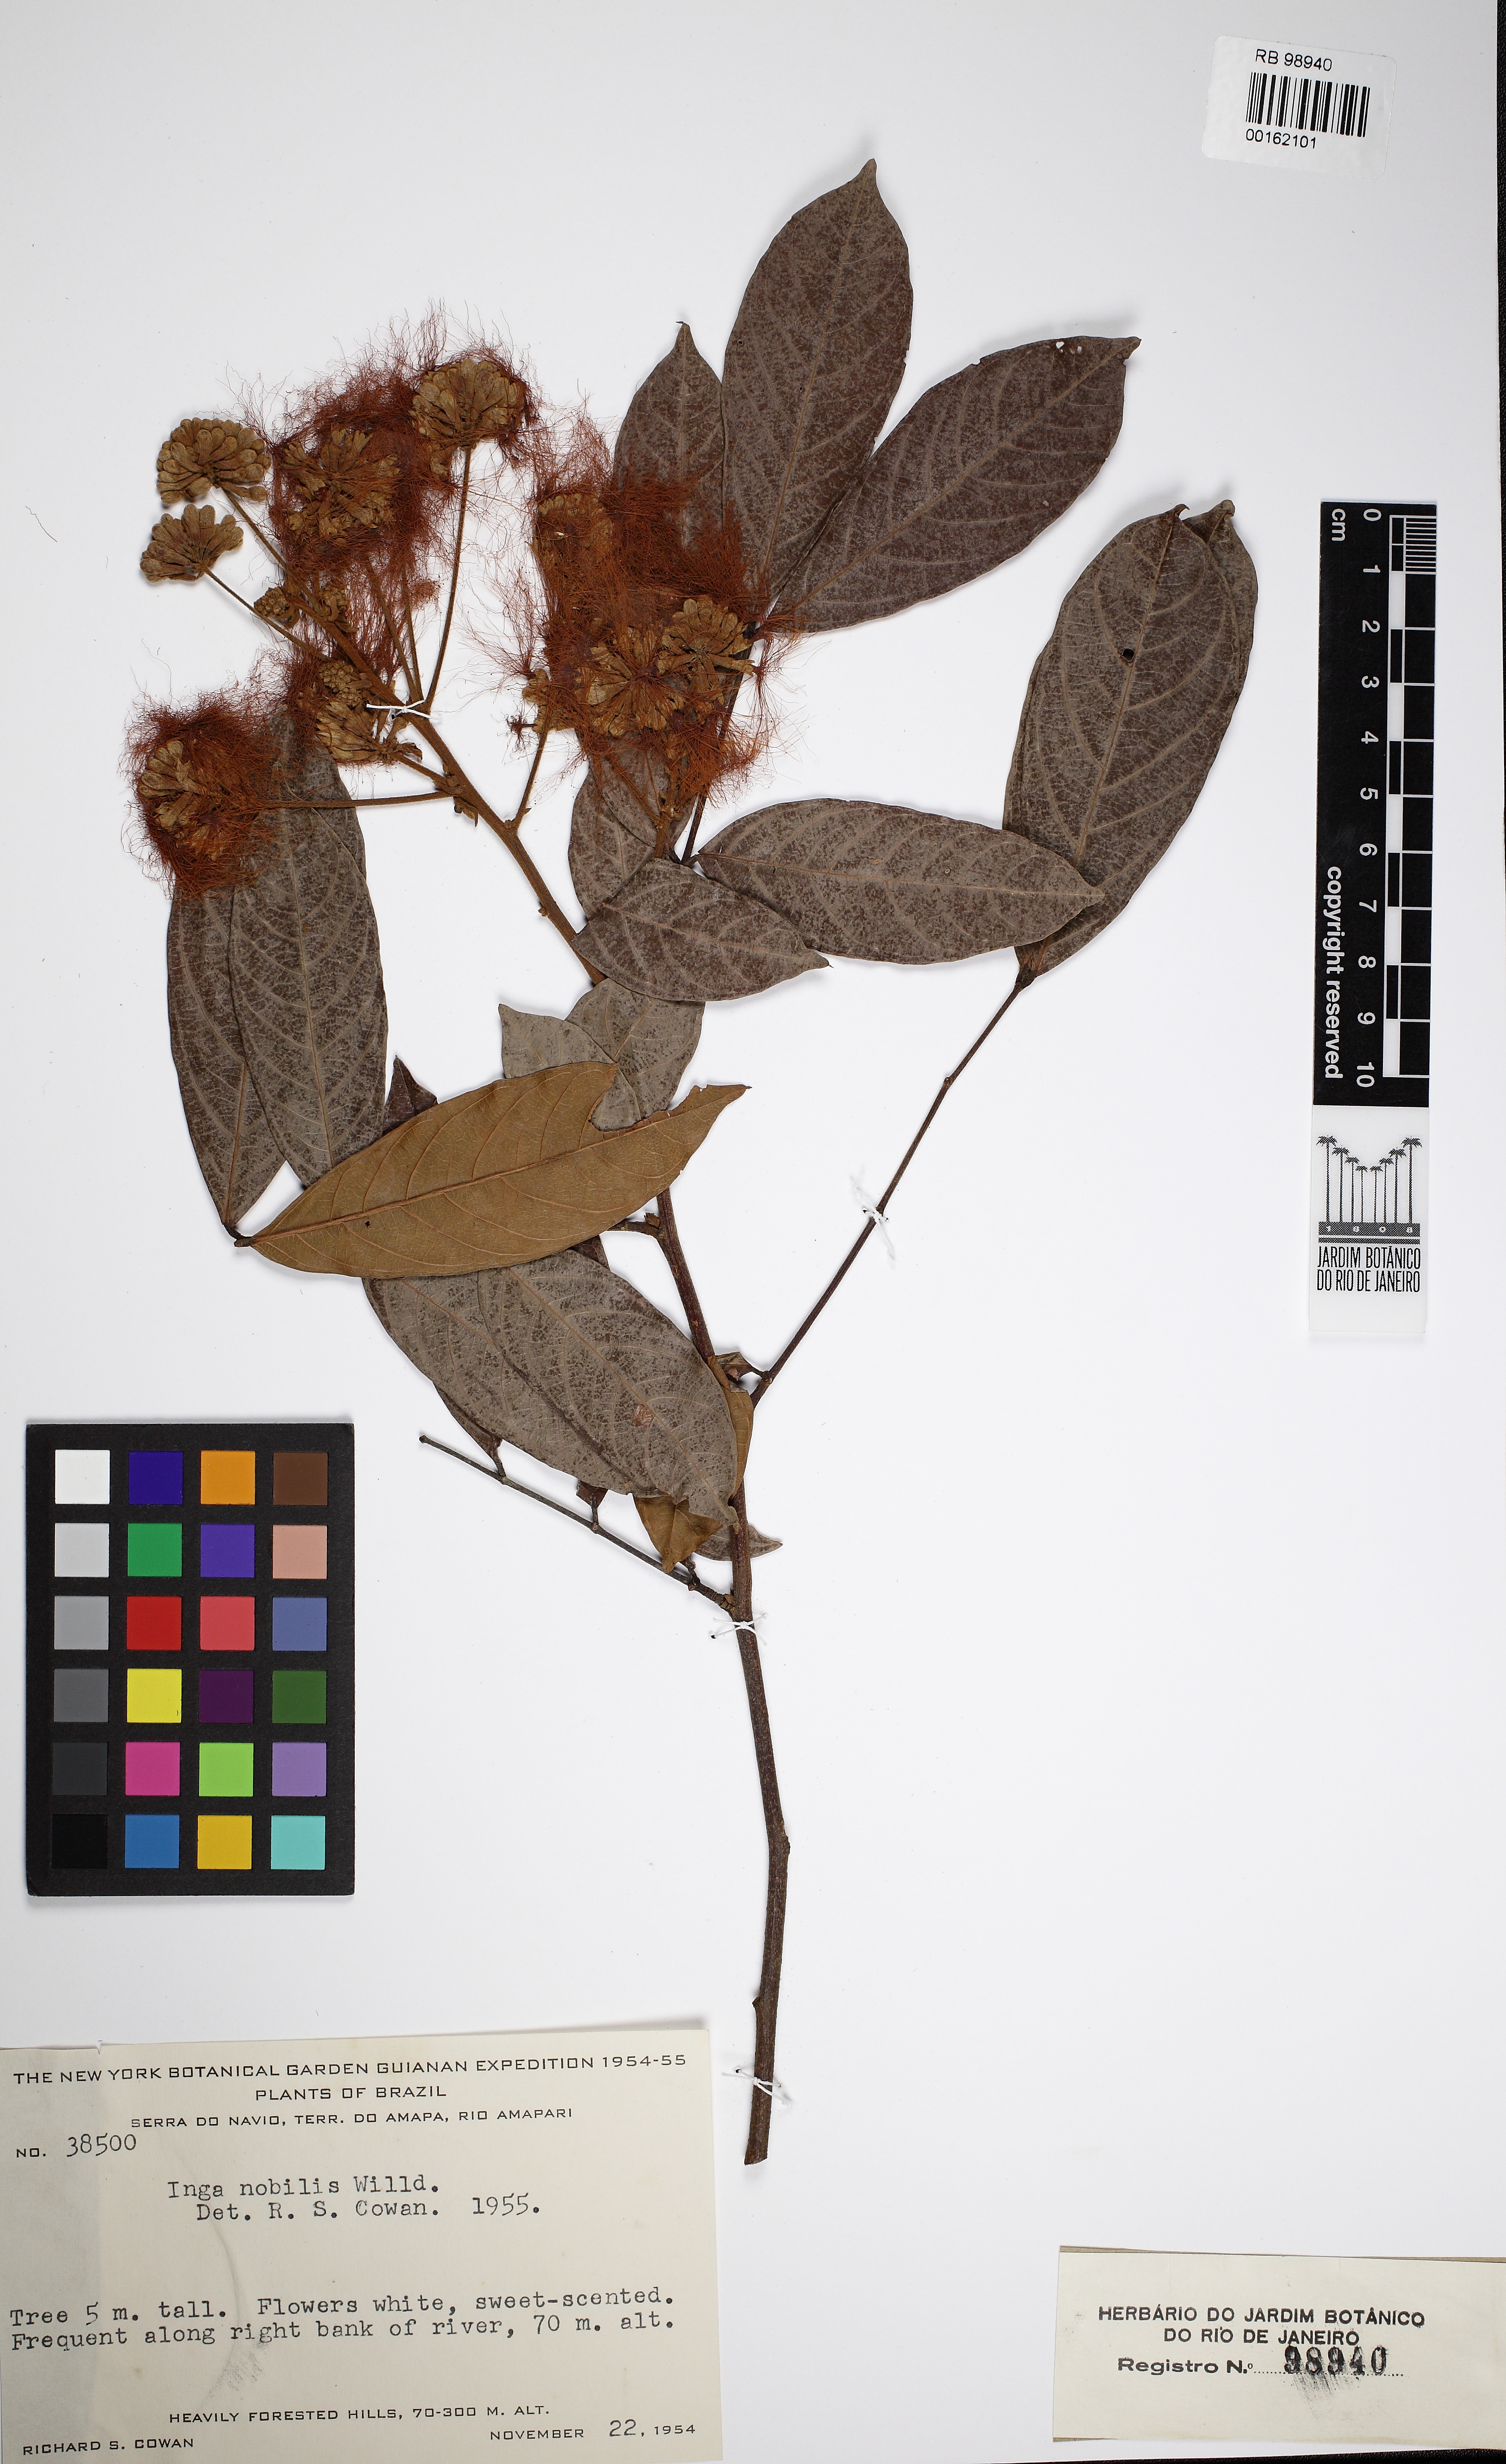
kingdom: Plantae
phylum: Tracheophyta
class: Magnoliopsida
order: Fabales
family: Fabaceae
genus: Inga
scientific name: Inga nobilis
